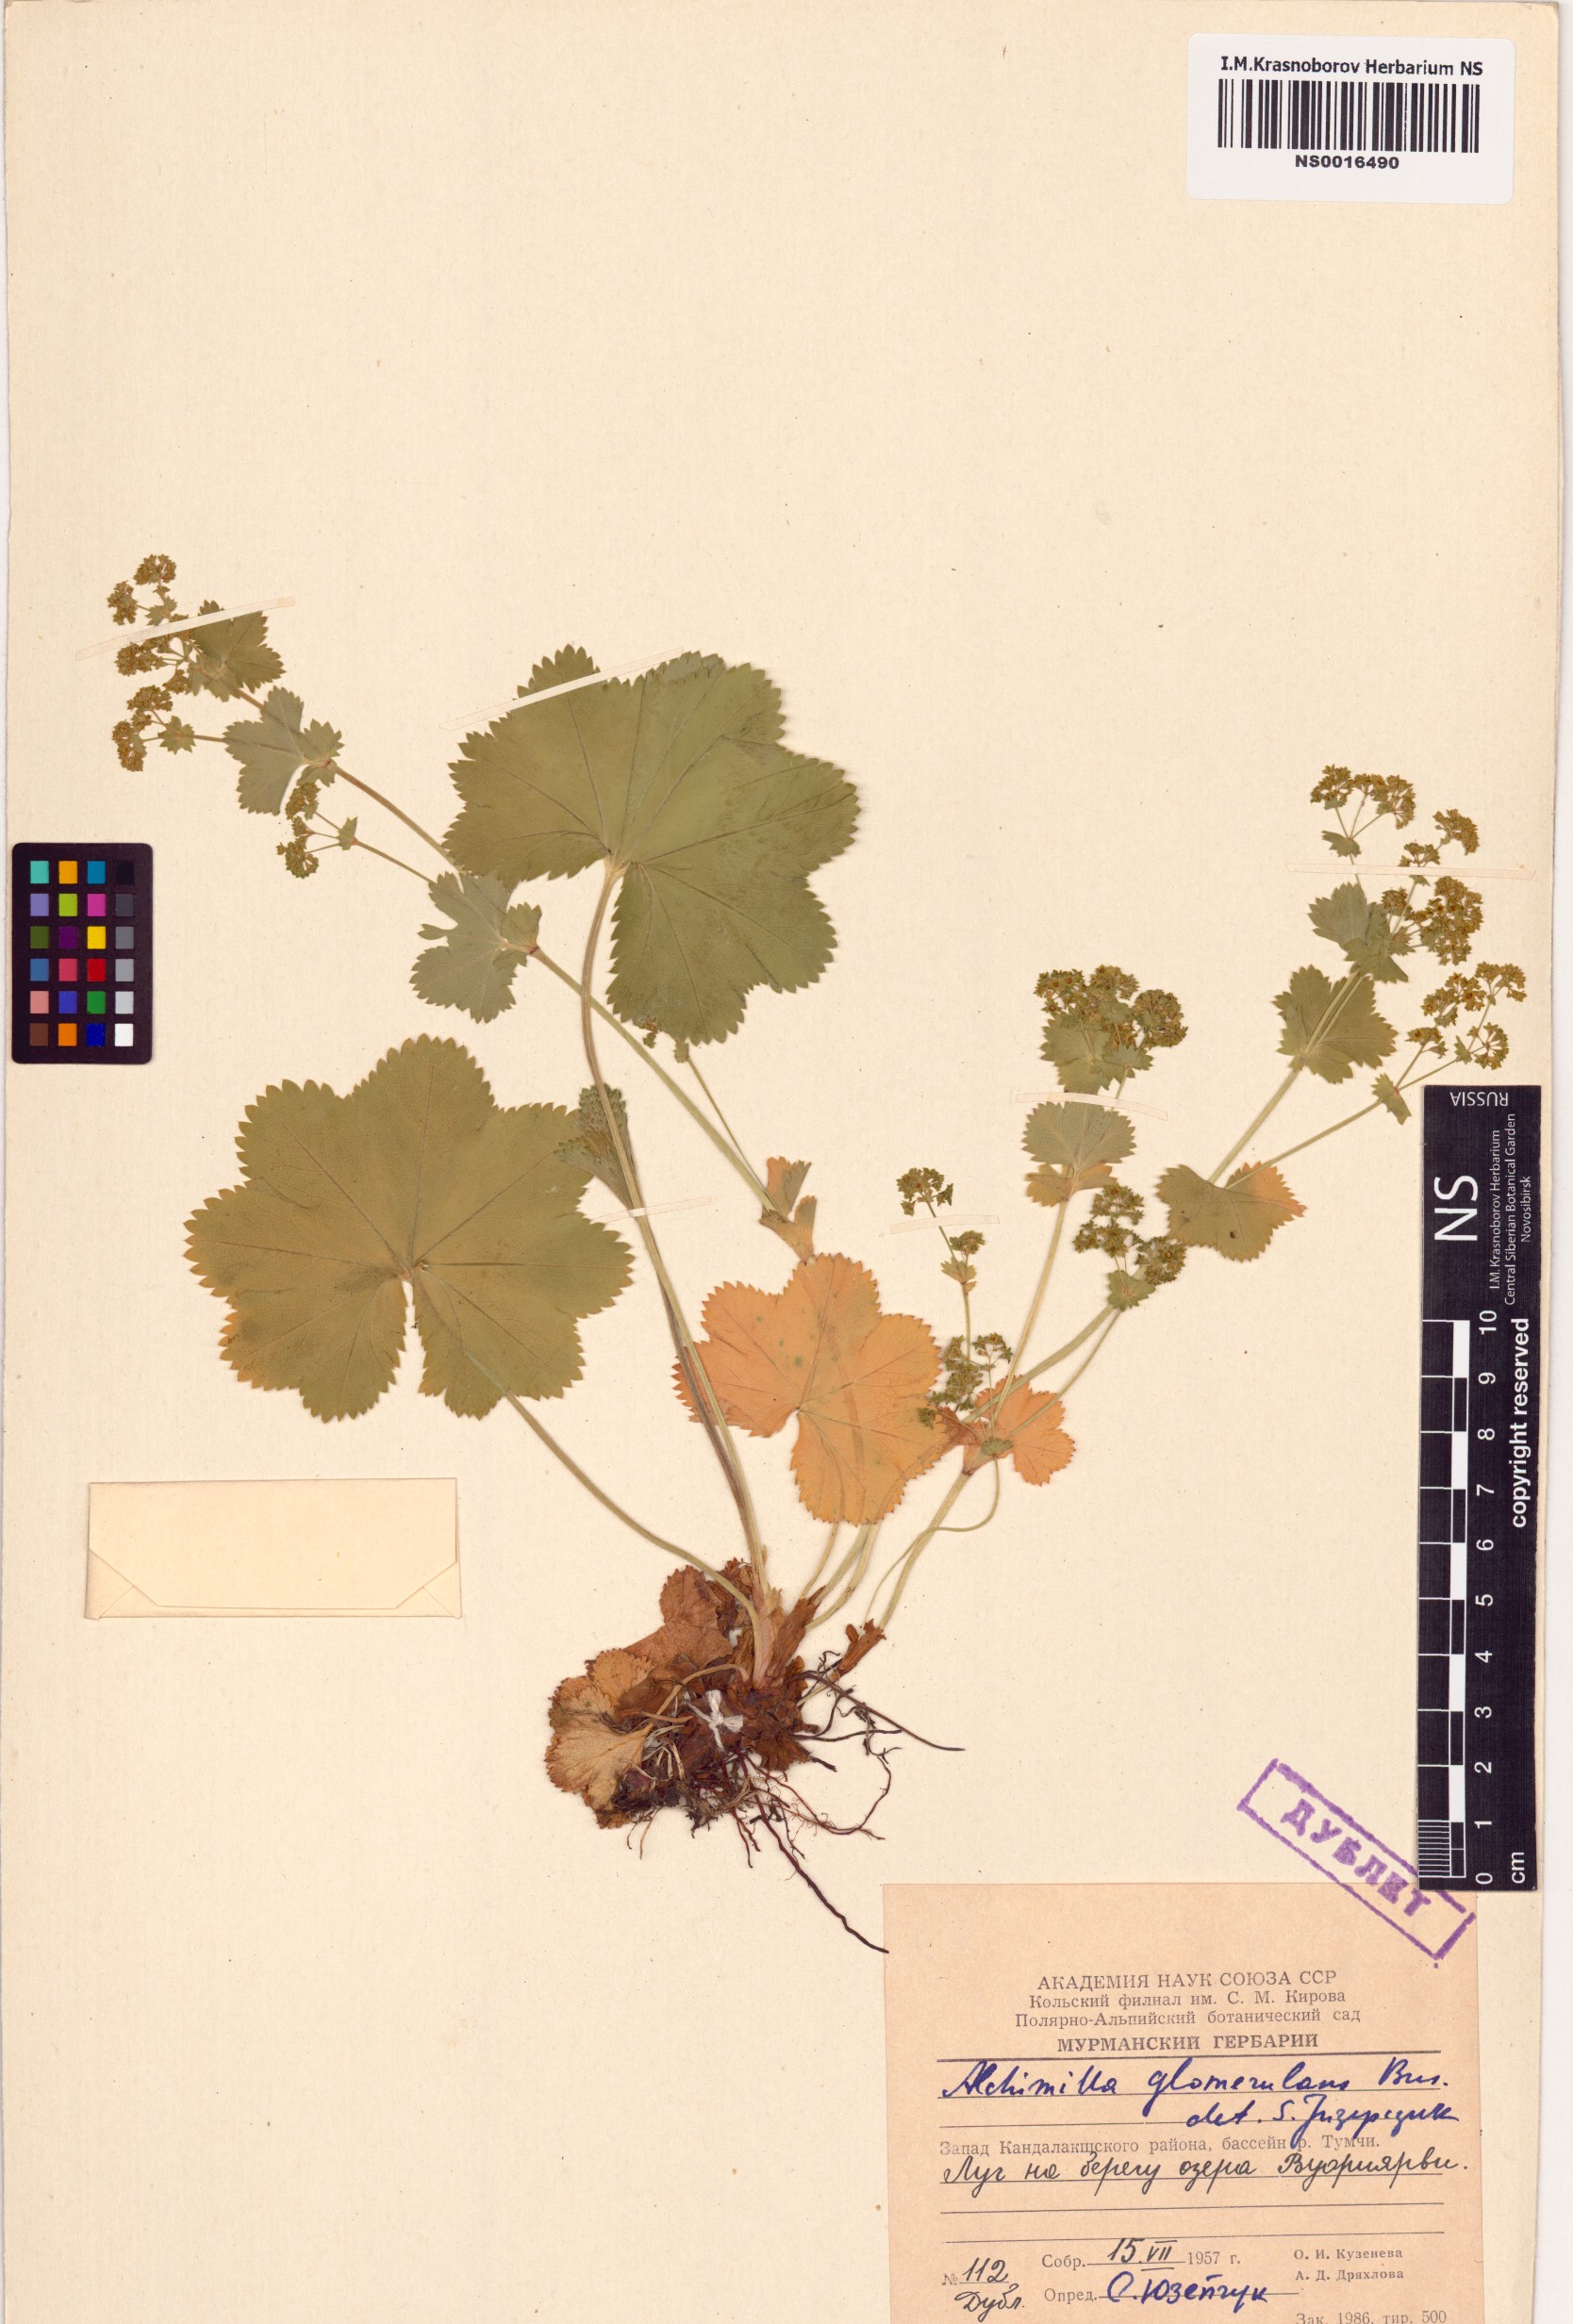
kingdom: Plantae
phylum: Tracheophyta
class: Magnoliopsida
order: Rosales
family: Rosaceae
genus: Alchemilla
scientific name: Alchemilla glomerulans
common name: Clustered lady's mantle
